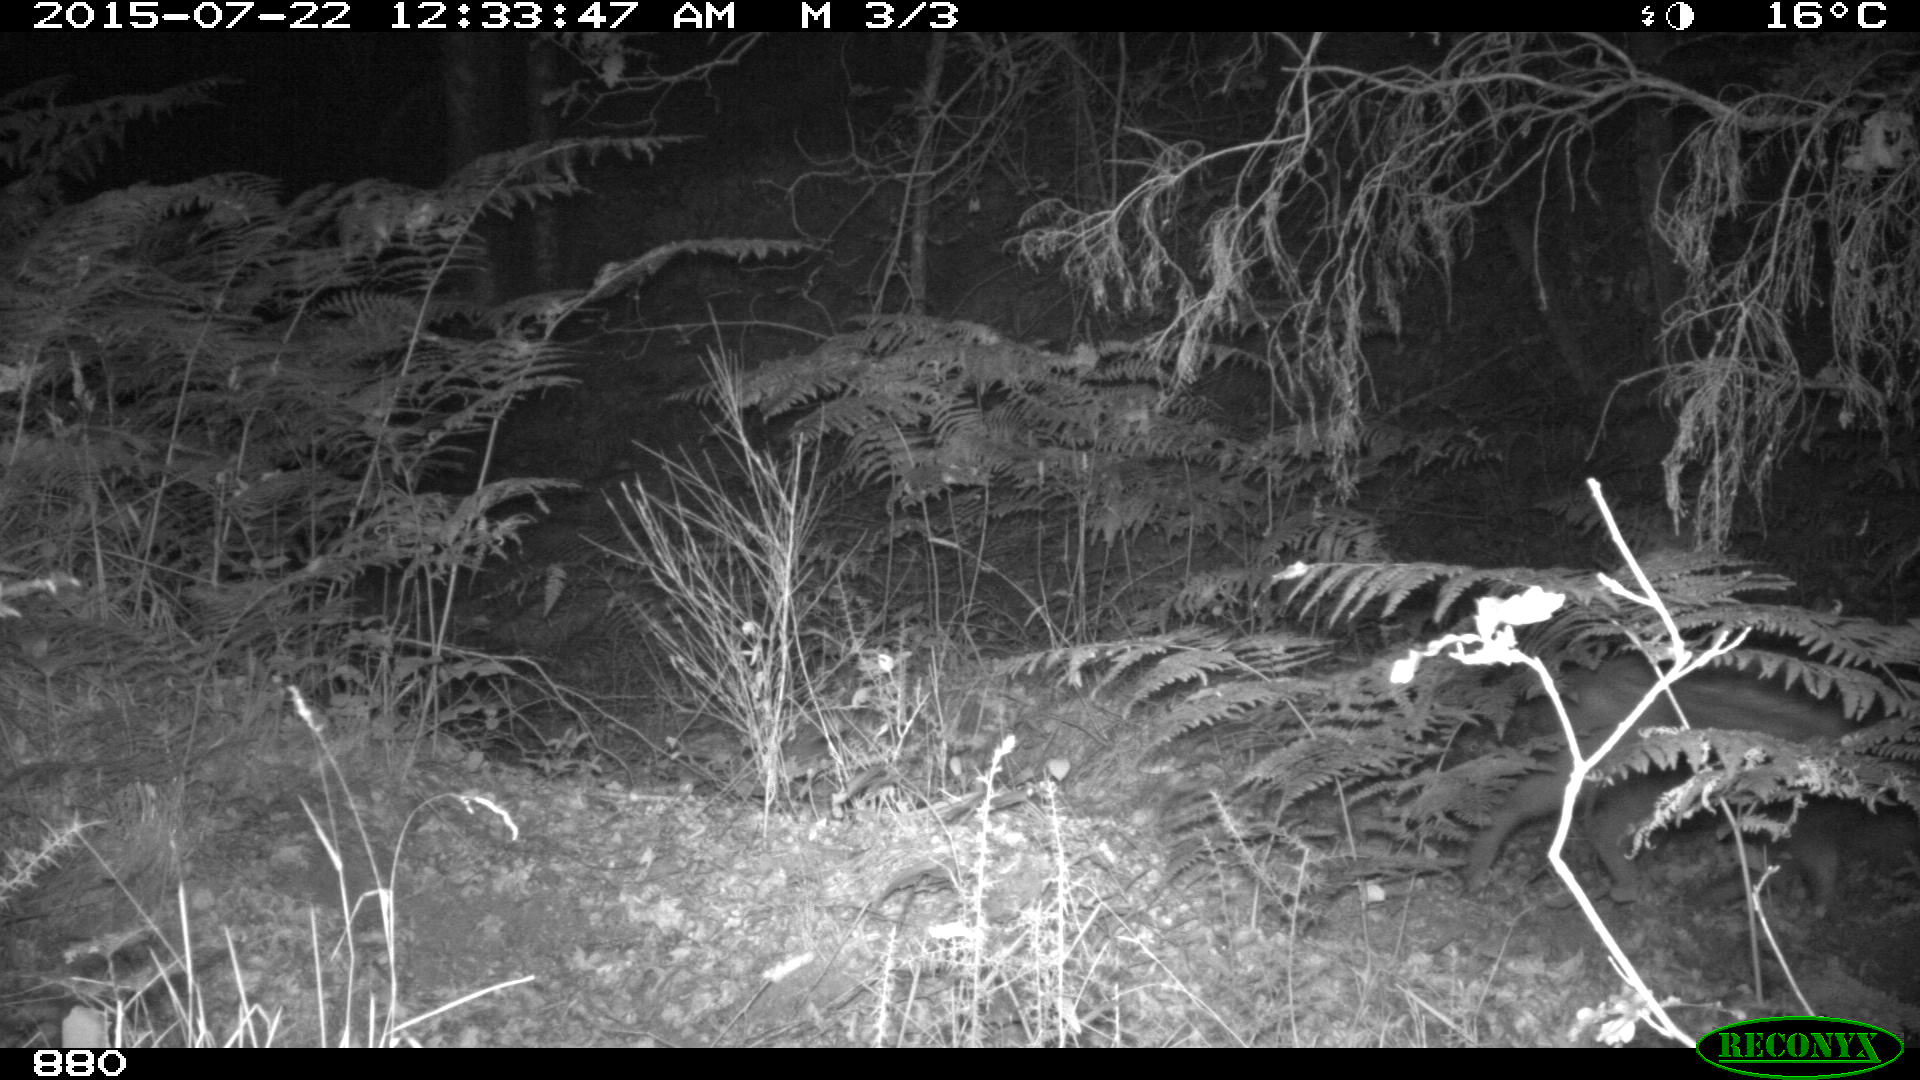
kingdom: Animalia
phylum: Chordata
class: Mammalia
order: Artiodactyla
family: Suidae
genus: Sus
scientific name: Sus scrofa
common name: Wild boar
